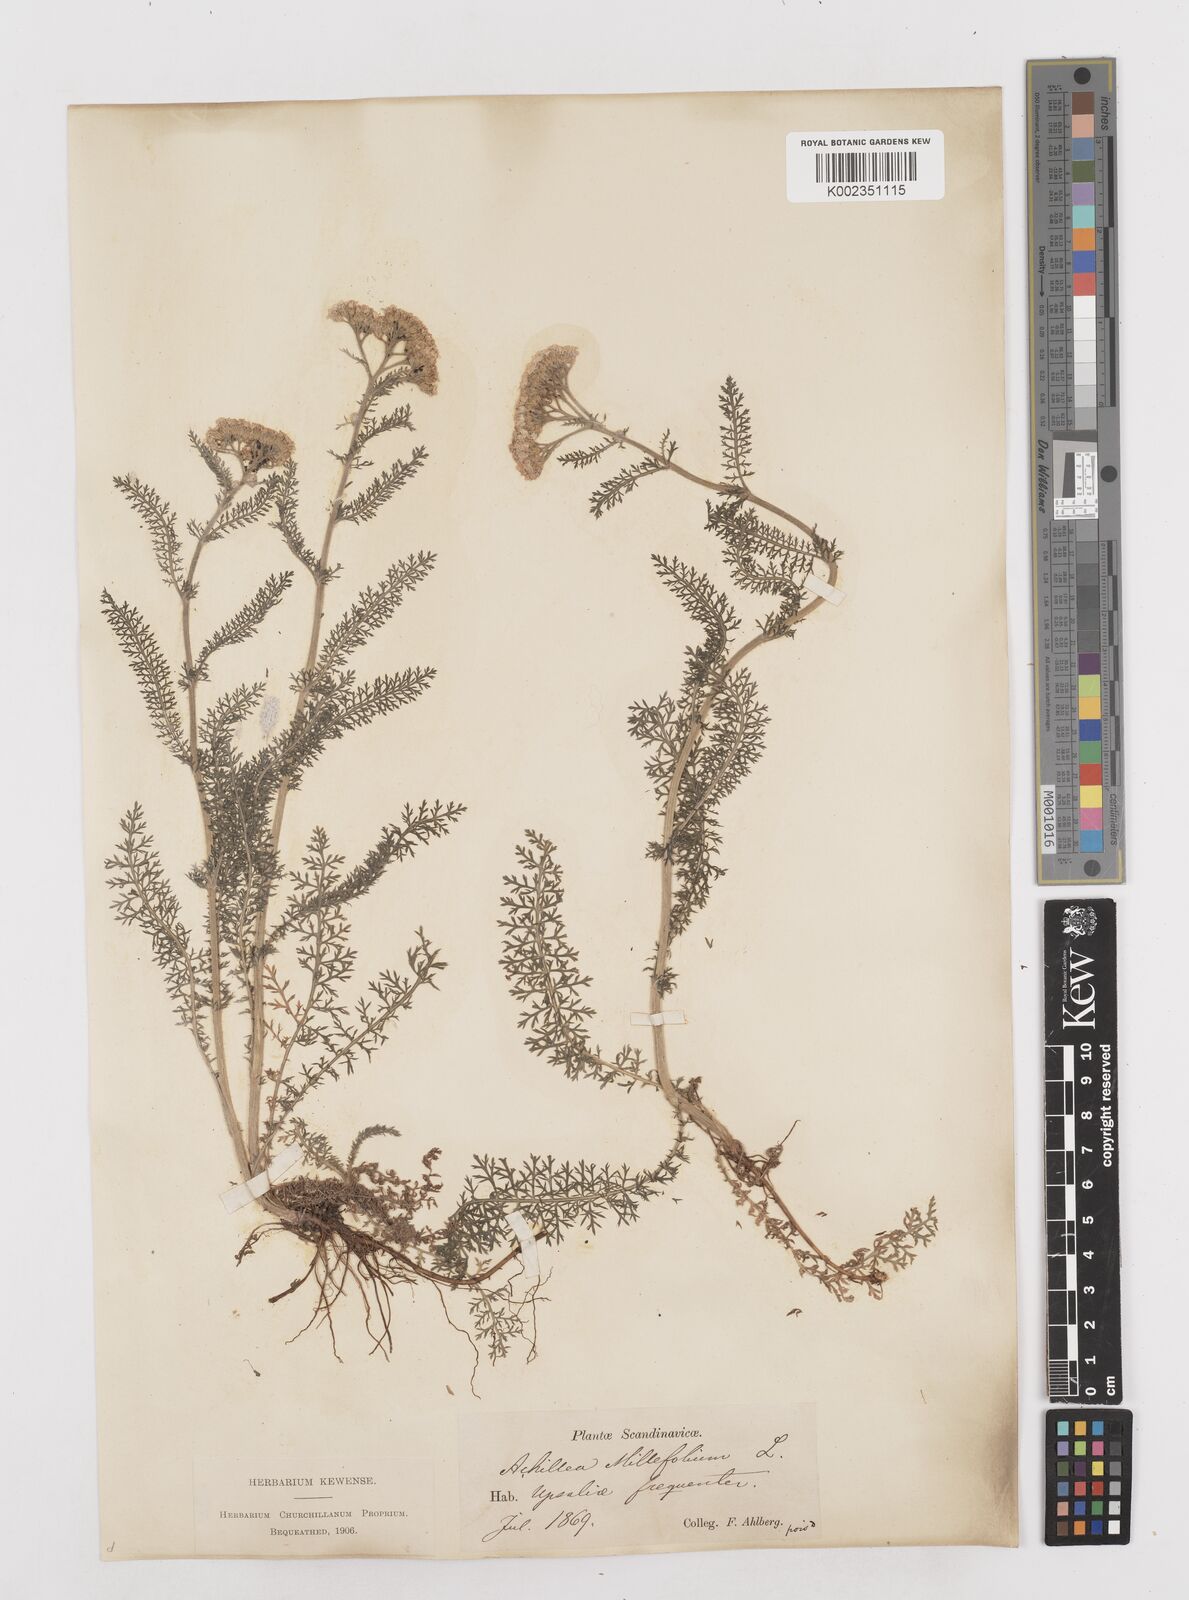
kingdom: Plantae
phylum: Tracheophyta
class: Magnoliopsida
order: Asterales
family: Asteraceae
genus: Achillea
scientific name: Achillea millefolium
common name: Yarrow
